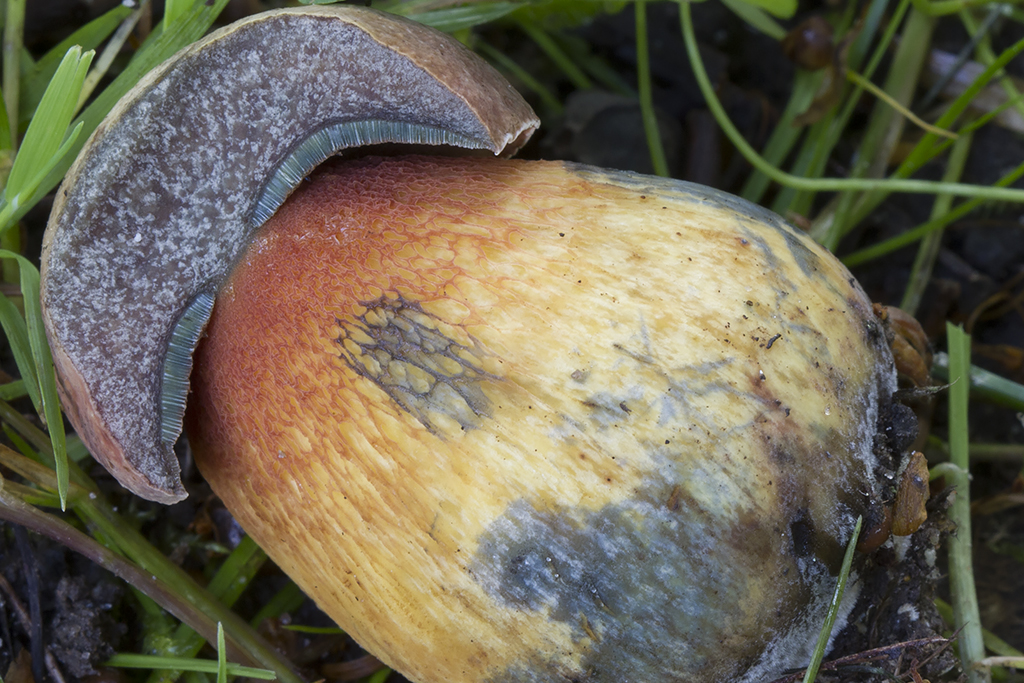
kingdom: Fungi
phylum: Basidiomycota
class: Agaricomycetes
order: Boletales
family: Boletaceae
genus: Suillellus
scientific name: Suillellus luridus
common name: netstokket indigorørhat
